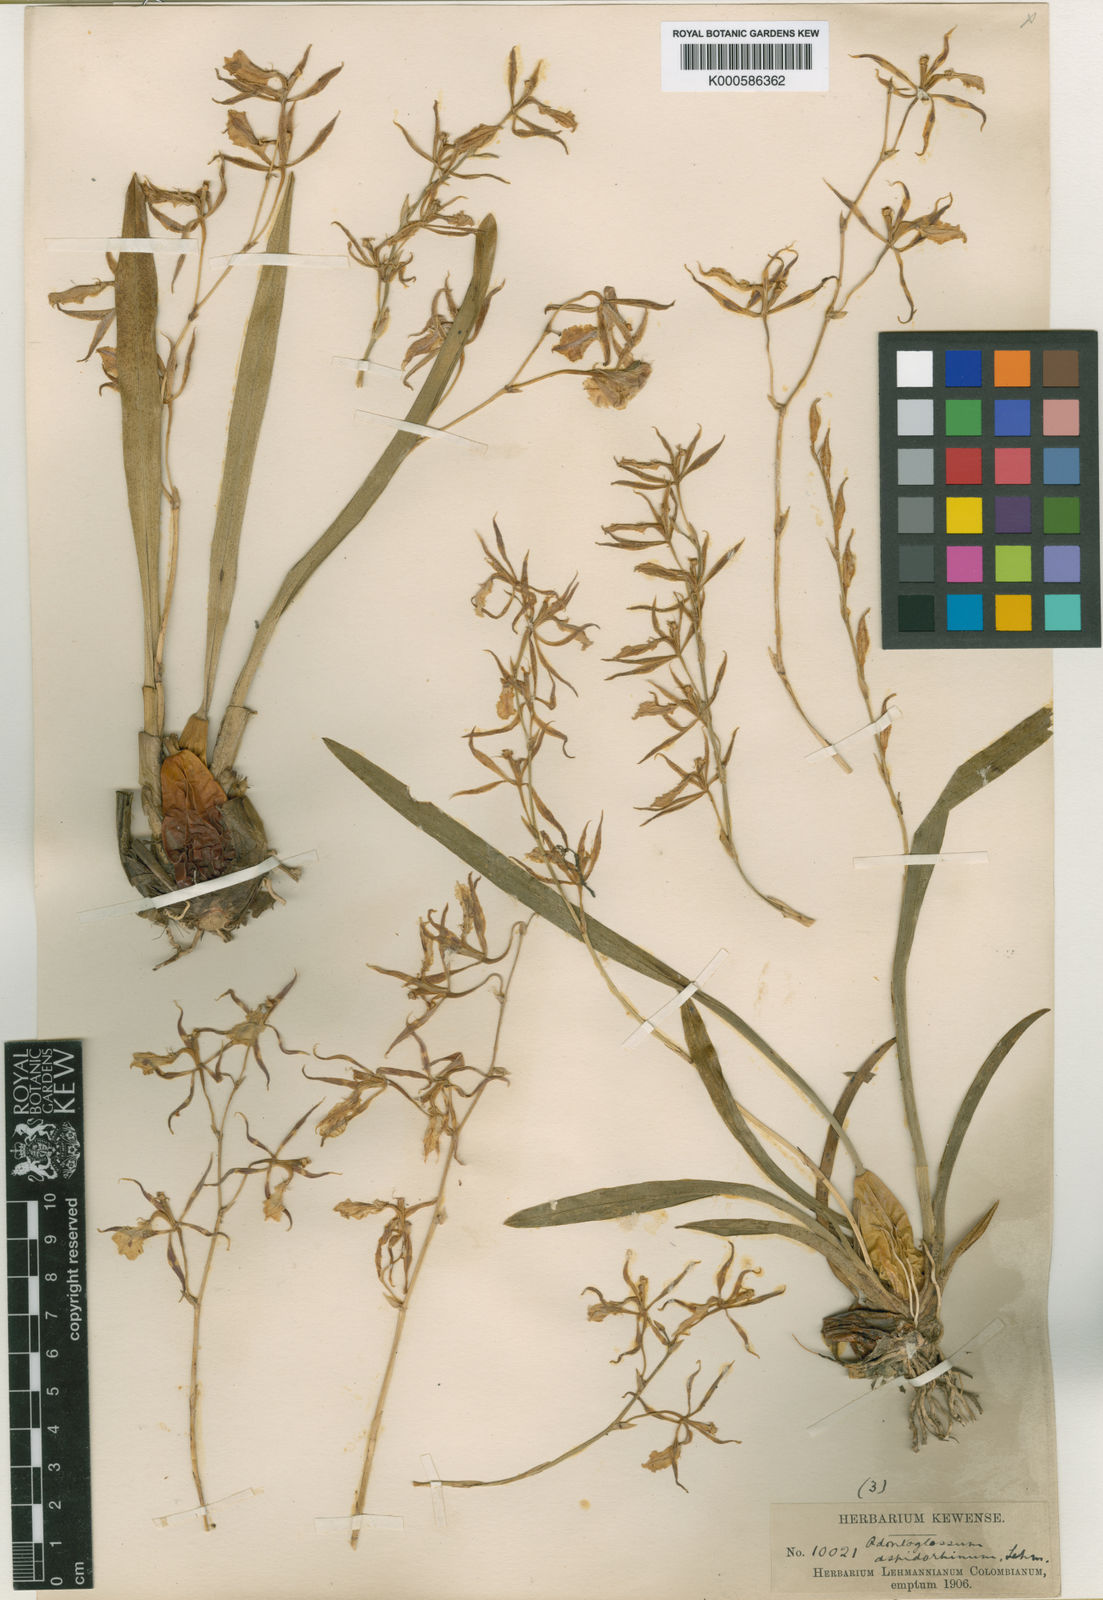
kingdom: Plantae
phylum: Tracheophyta
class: Liliopsida
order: Asparagales
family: Orchidaceae
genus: Oncidium
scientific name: Oncidium aspidorhinum
